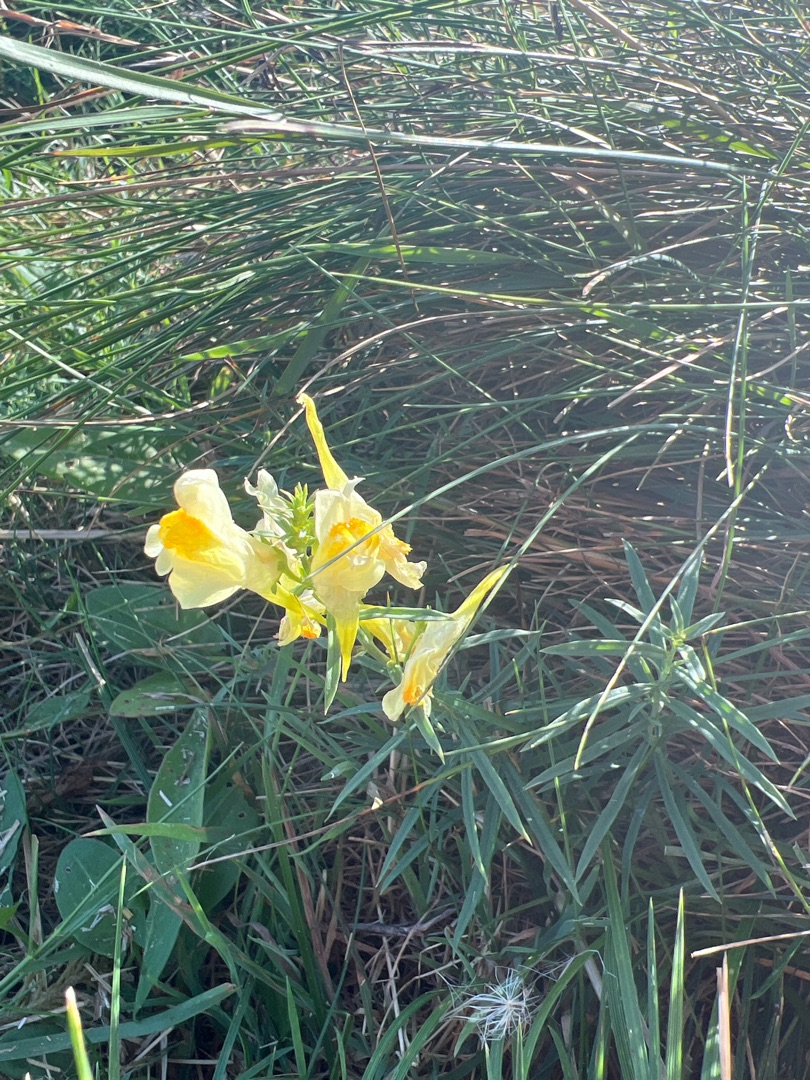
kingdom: Plantae
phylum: Tracheophyta
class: Magnoliopsida
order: Lamiales
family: Plantaginaceae
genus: Linaria
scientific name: Linaria vulgaris
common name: Almindelig torskemund
